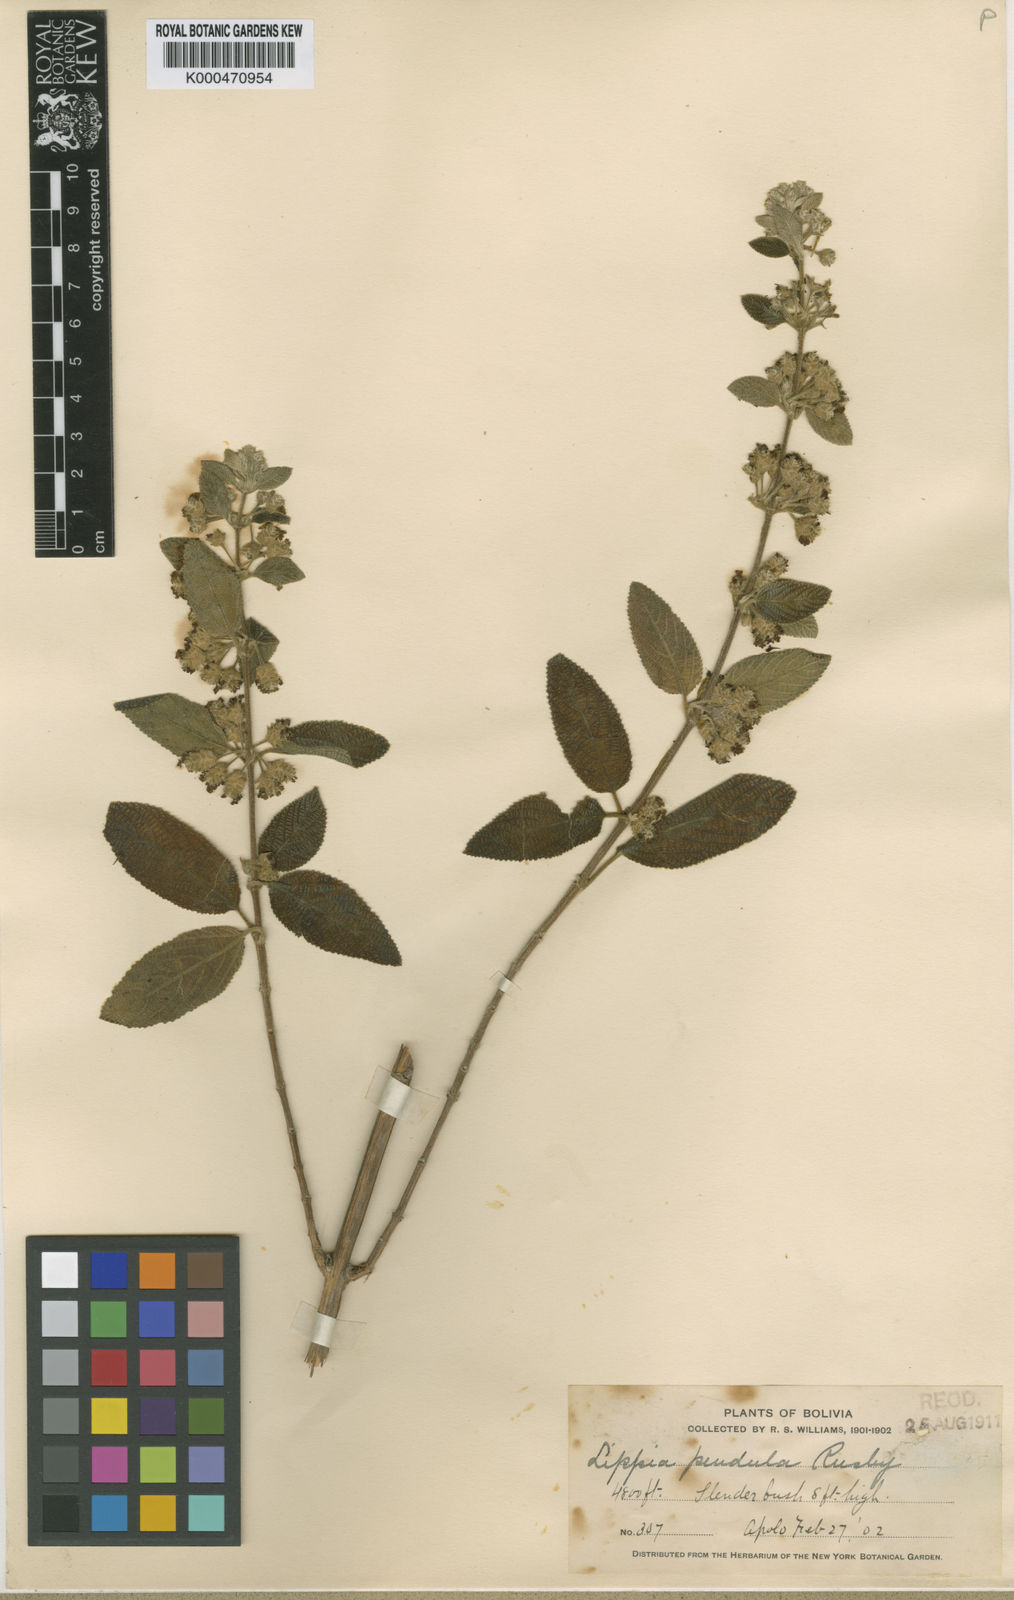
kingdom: Plantae
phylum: Tracheophyta
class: Magnoliopsida
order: Lamiales
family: Verbenaceae
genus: Lippia
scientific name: Lippia origanoides
